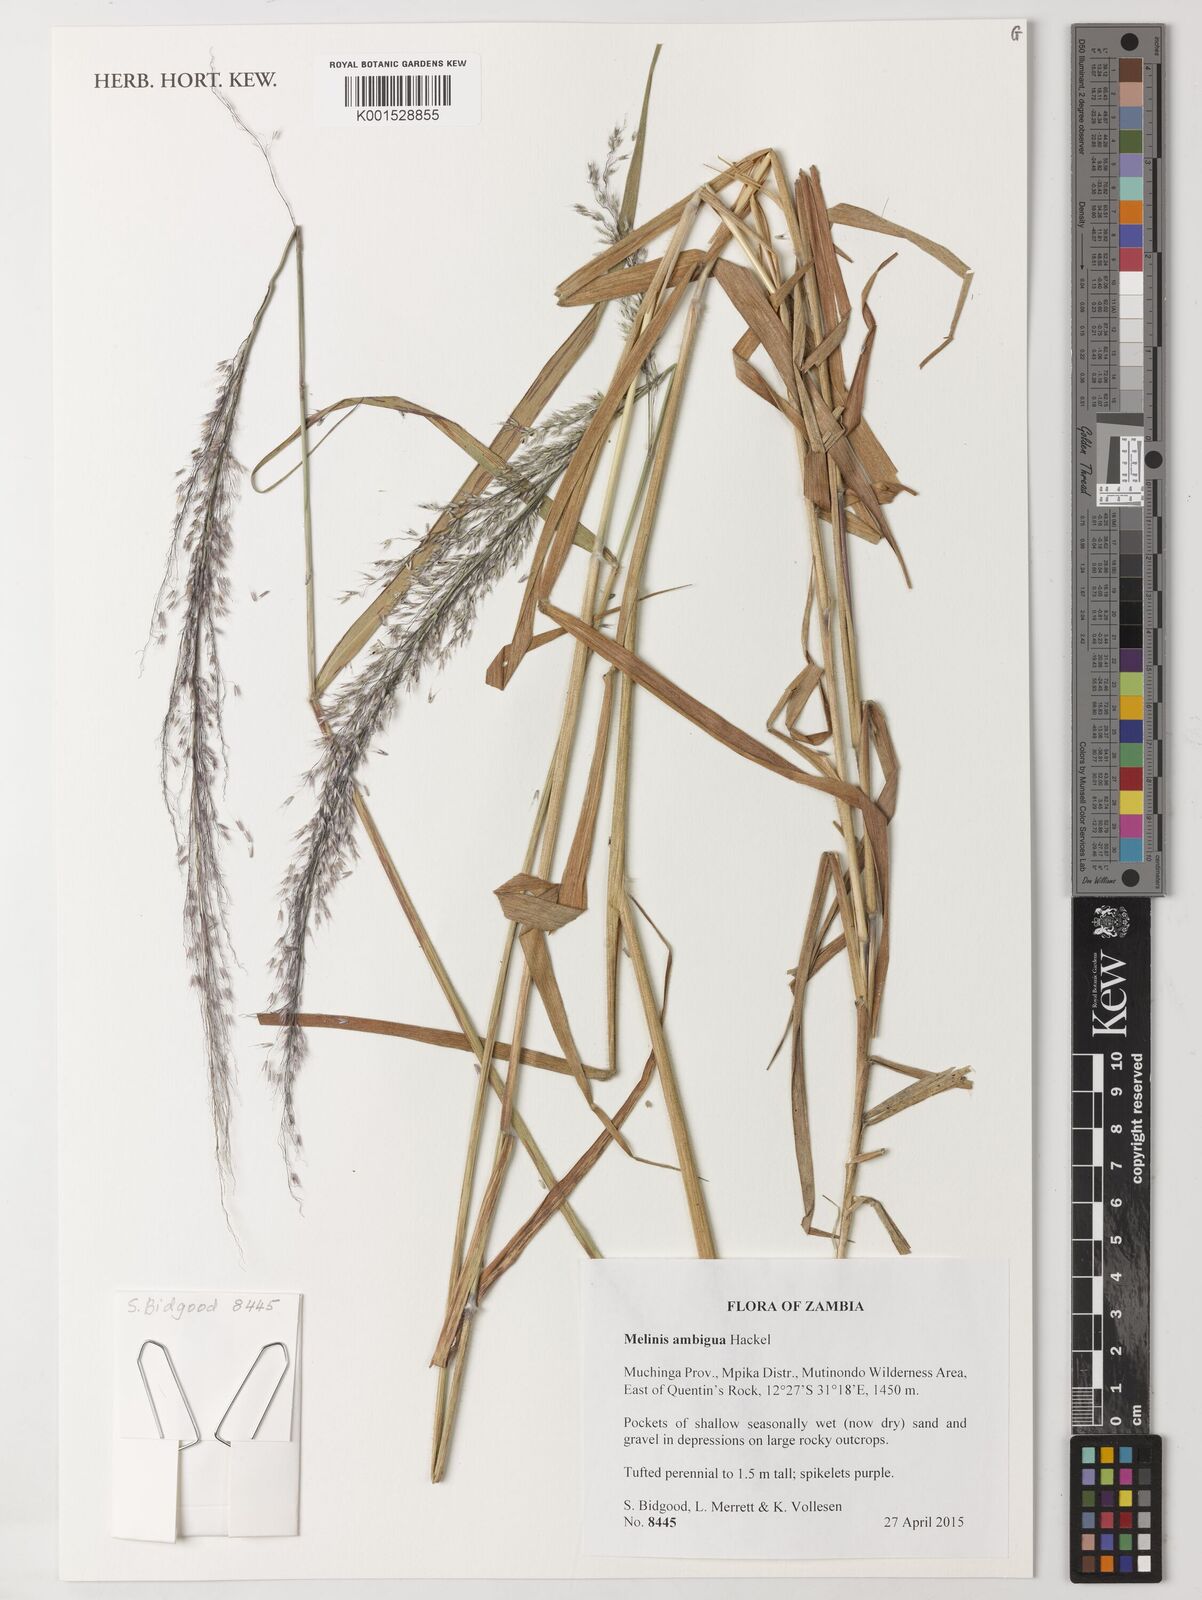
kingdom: Plantae
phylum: Tracheophyta
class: Liliopsida
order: Poales
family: Poaceae
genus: Melinis
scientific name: Melinis ambigua
